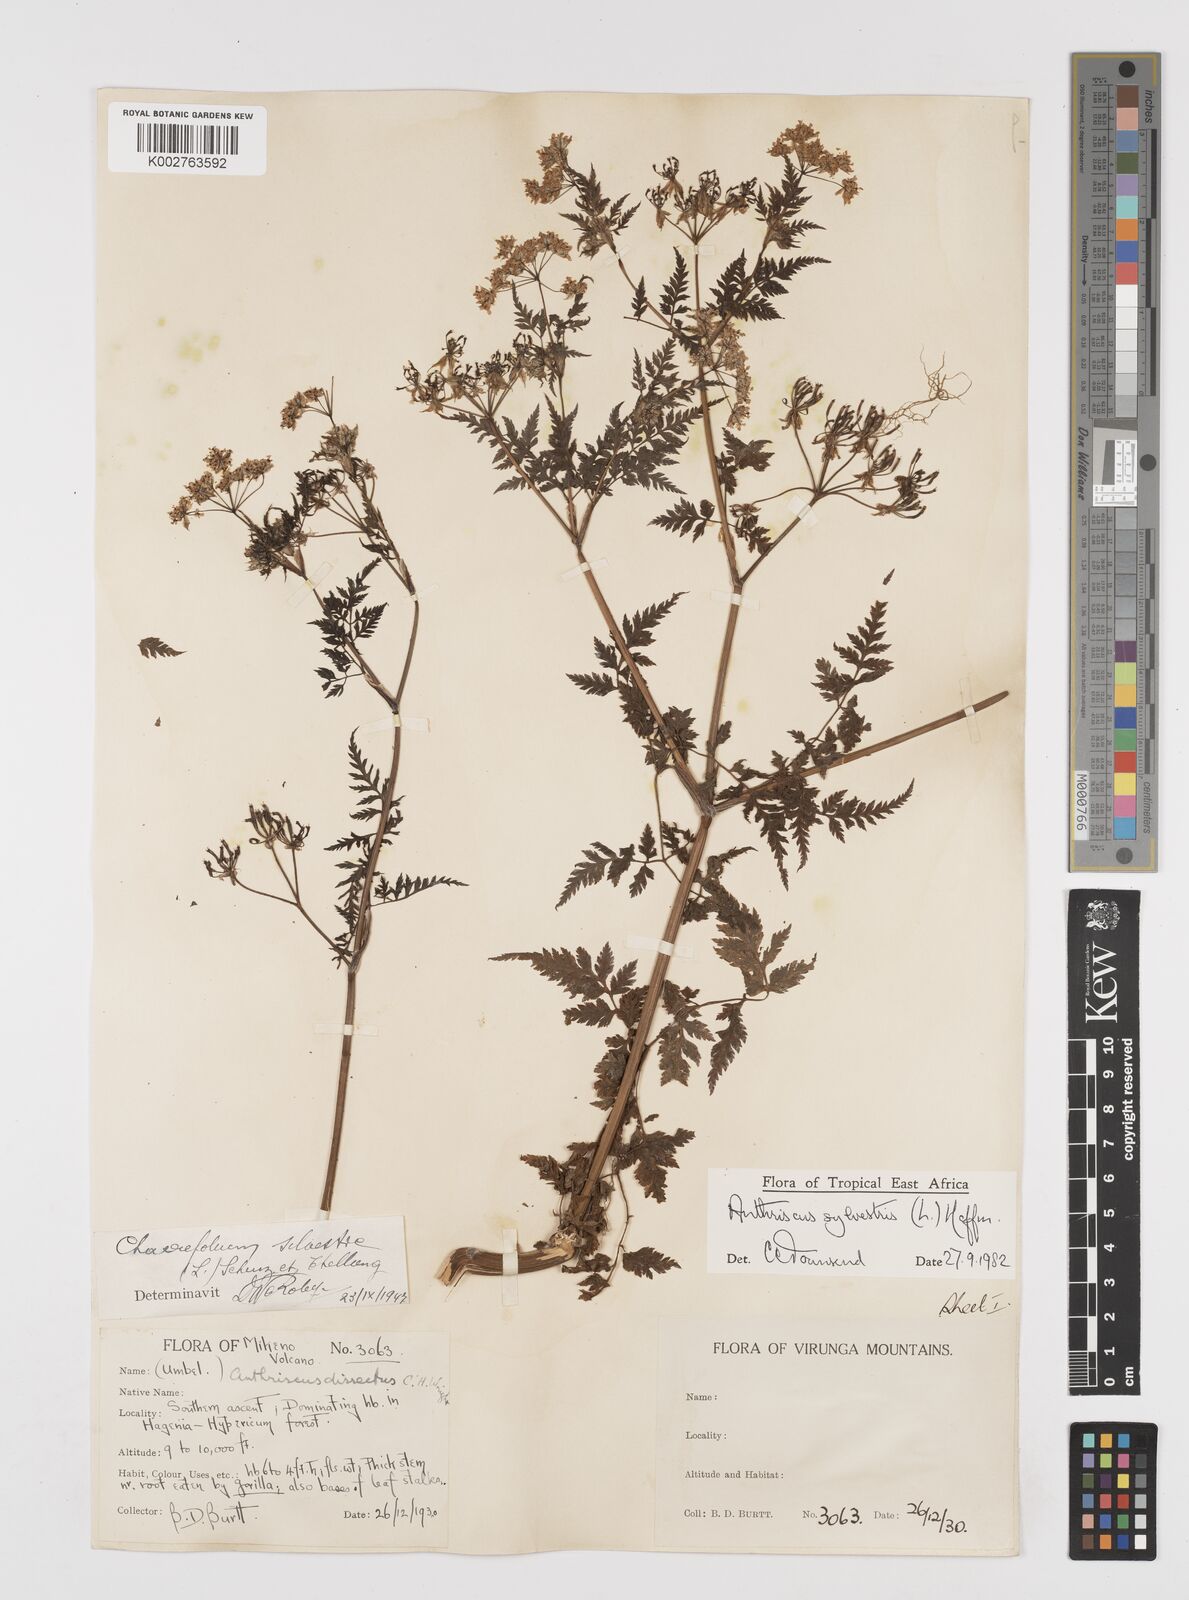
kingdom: Plantae
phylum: Tracheophyta
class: Magnoliopsida
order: Apiales
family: Apiaceae
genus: Anthriscus
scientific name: Anthriscus sylvestris
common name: Cow parsley
